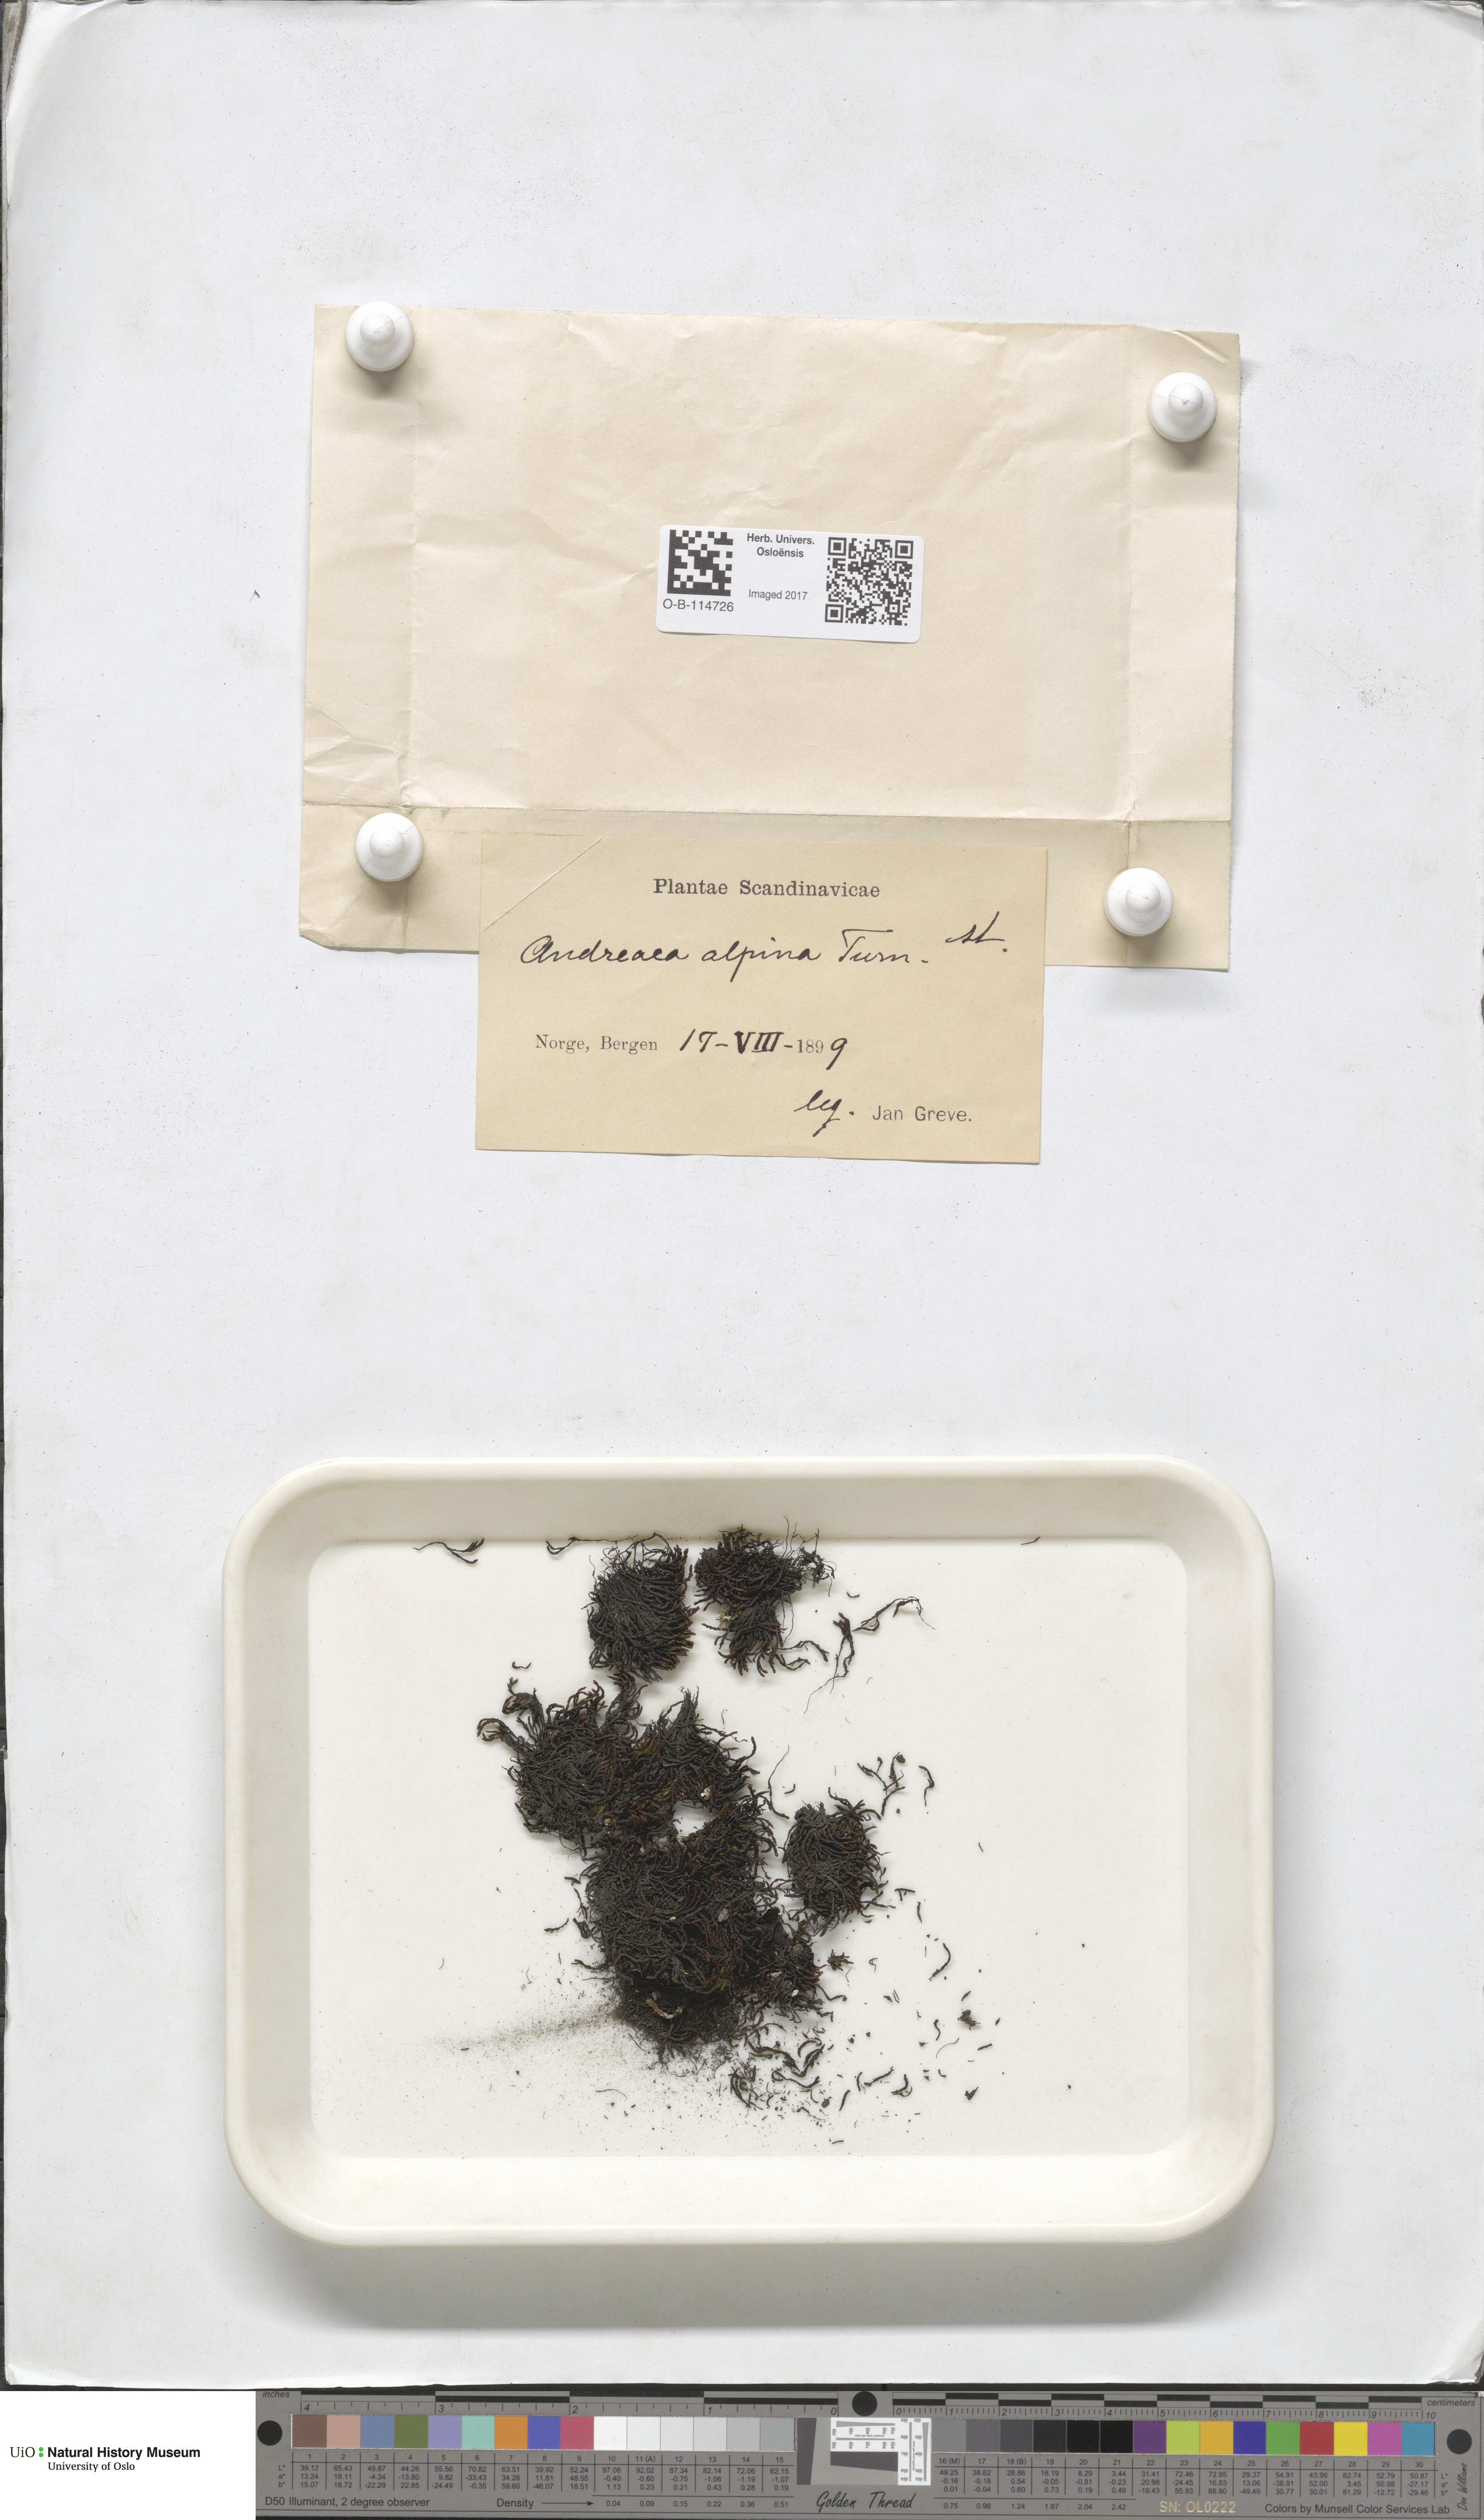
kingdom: Plantae
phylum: Bryophyta
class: Andreaeopsida
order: Andreaeales
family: Andreaeaceae
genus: Andreaea
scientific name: Andreaea hookeri
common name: Alpine rock-moss
